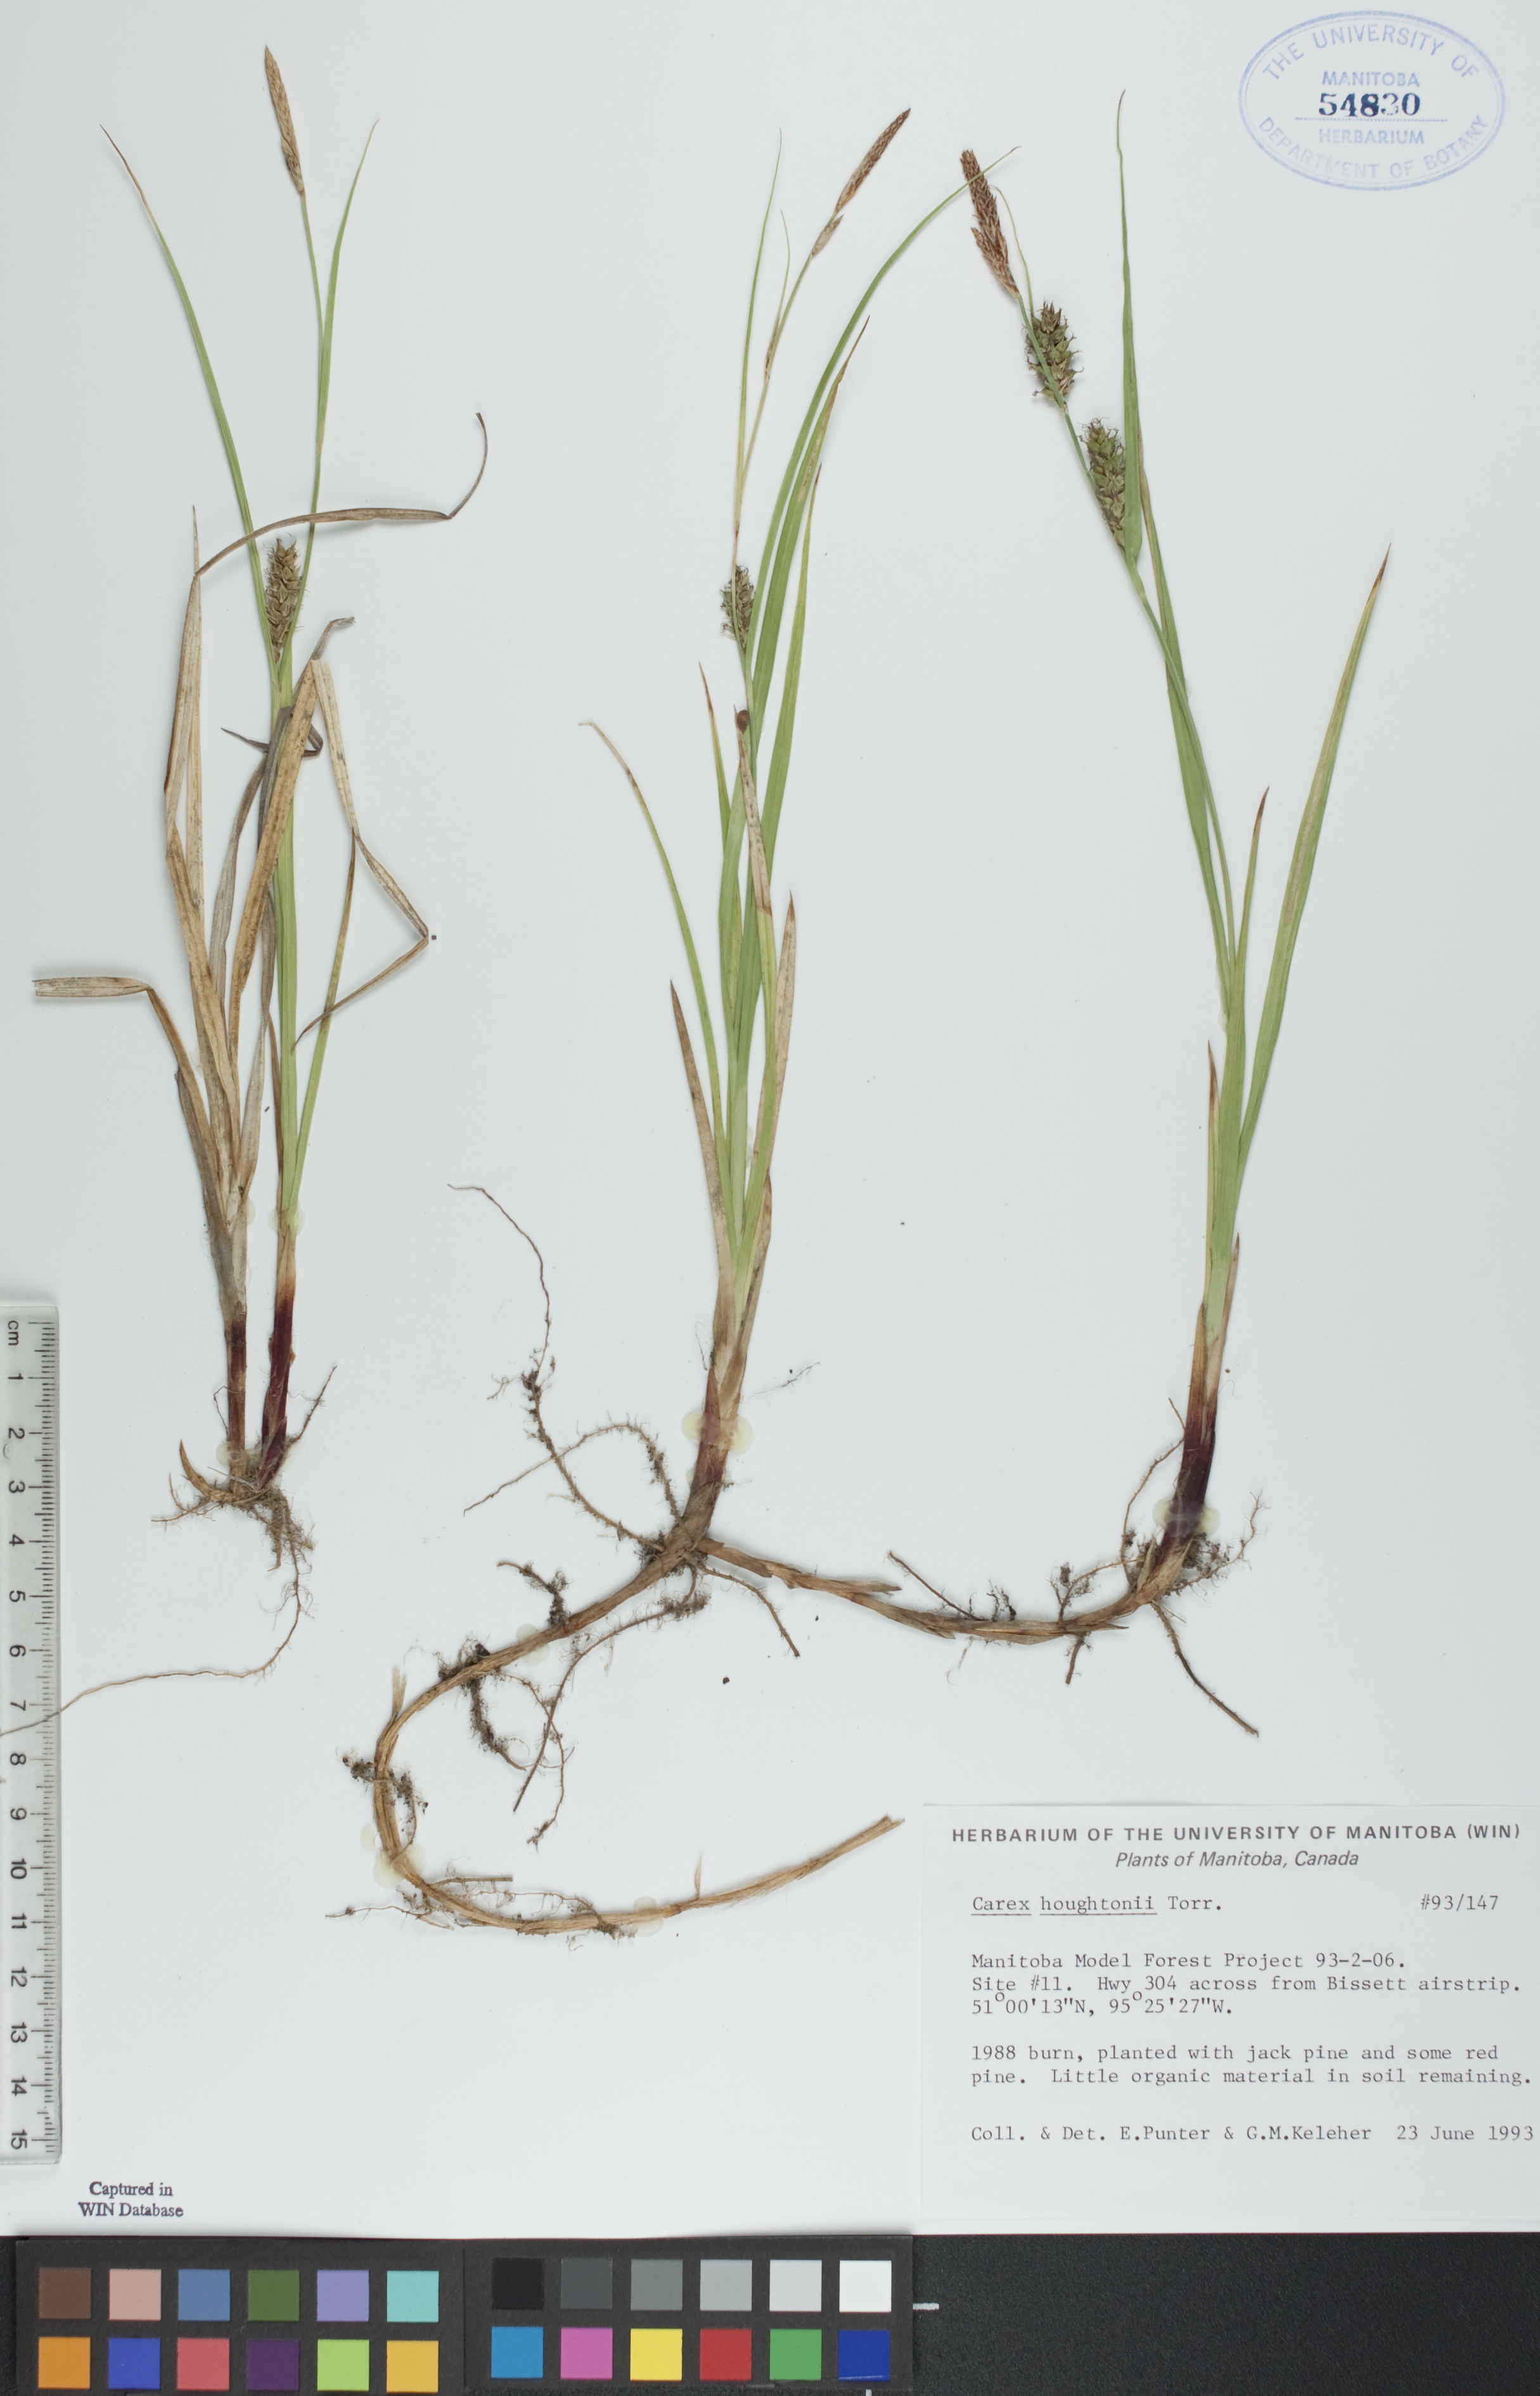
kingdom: Plantae
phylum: Tracheophyta
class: Liliopsida
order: Poales
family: Cyperaceae
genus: Carex
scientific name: Carex houghtoniana
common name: Houghton's sedge
